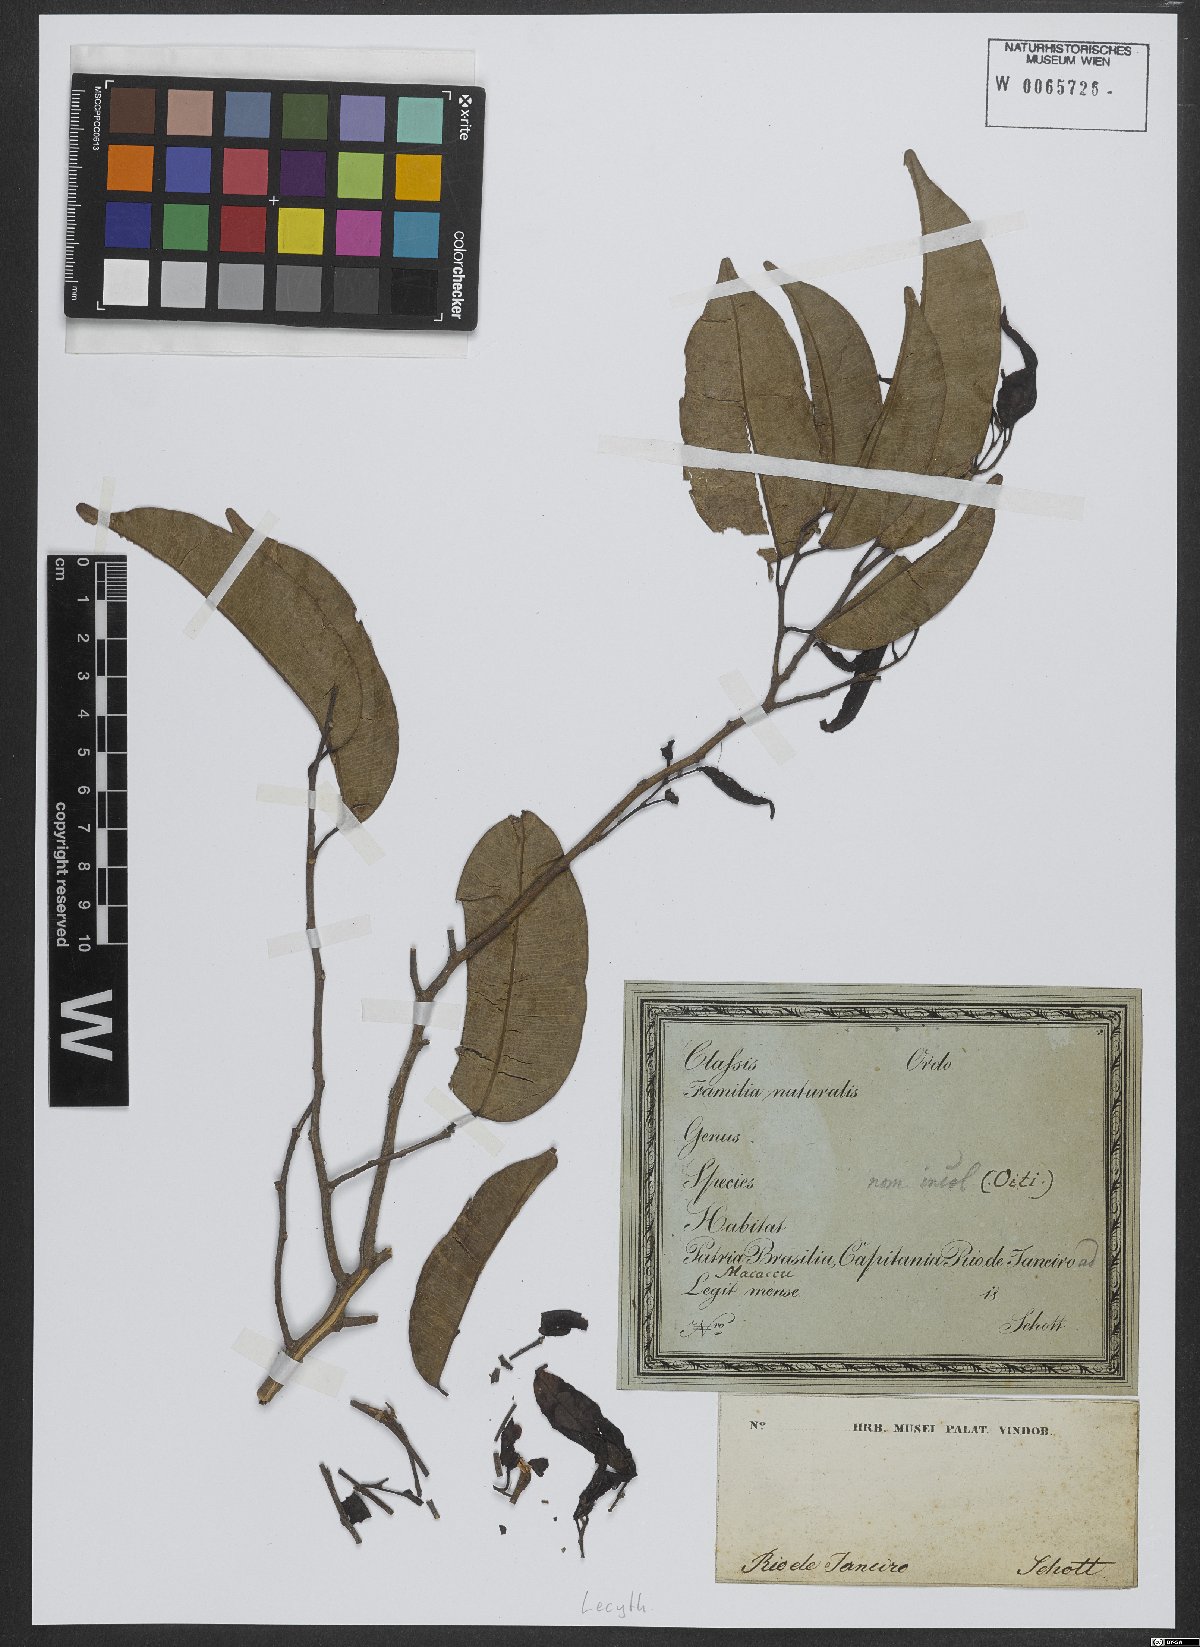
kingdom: Plantae
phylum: Tracheophyta
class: Magnoliopsida
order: Ericales
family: Lecythidaceae
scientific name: Lecythidaceae
